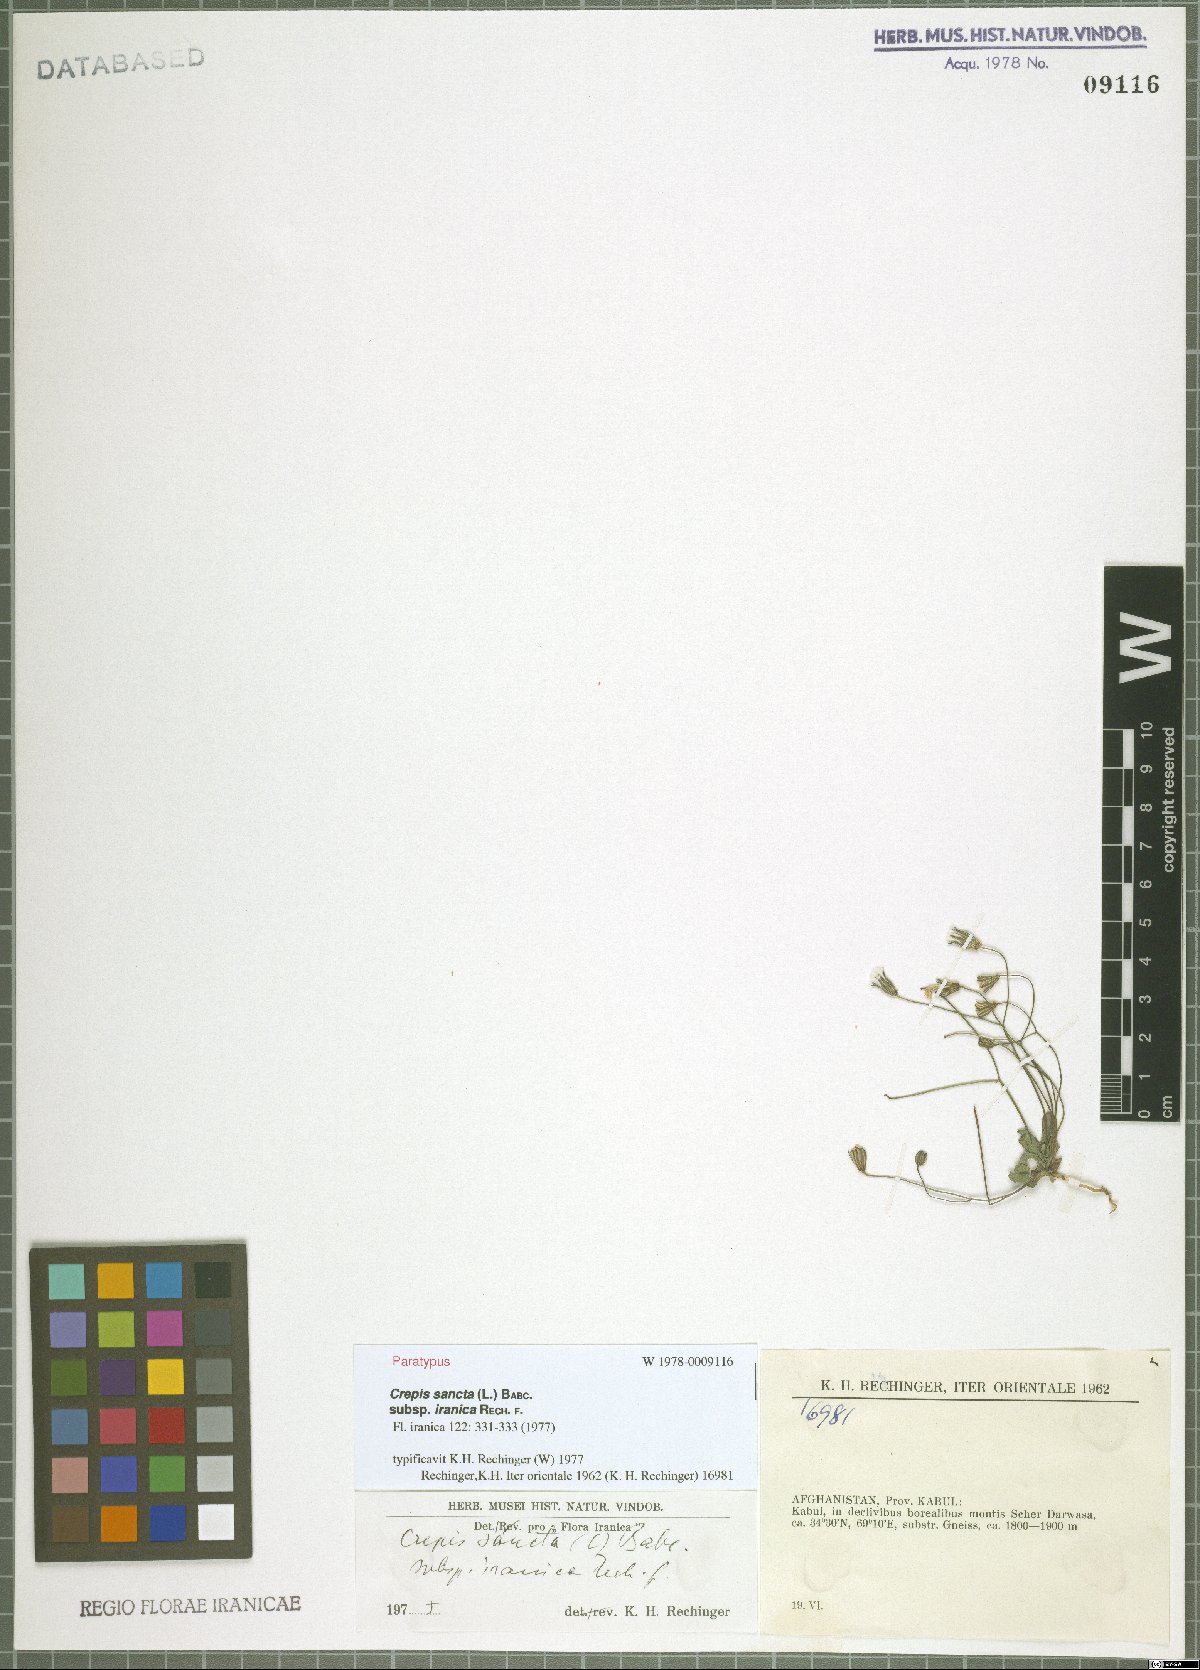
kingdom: Plantae
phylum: Tracheophyta
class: Magnoliopsida
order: Asterales
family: Asteraceae
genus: Crepis
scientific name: Crepis sancta
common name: Hawk's-beard
